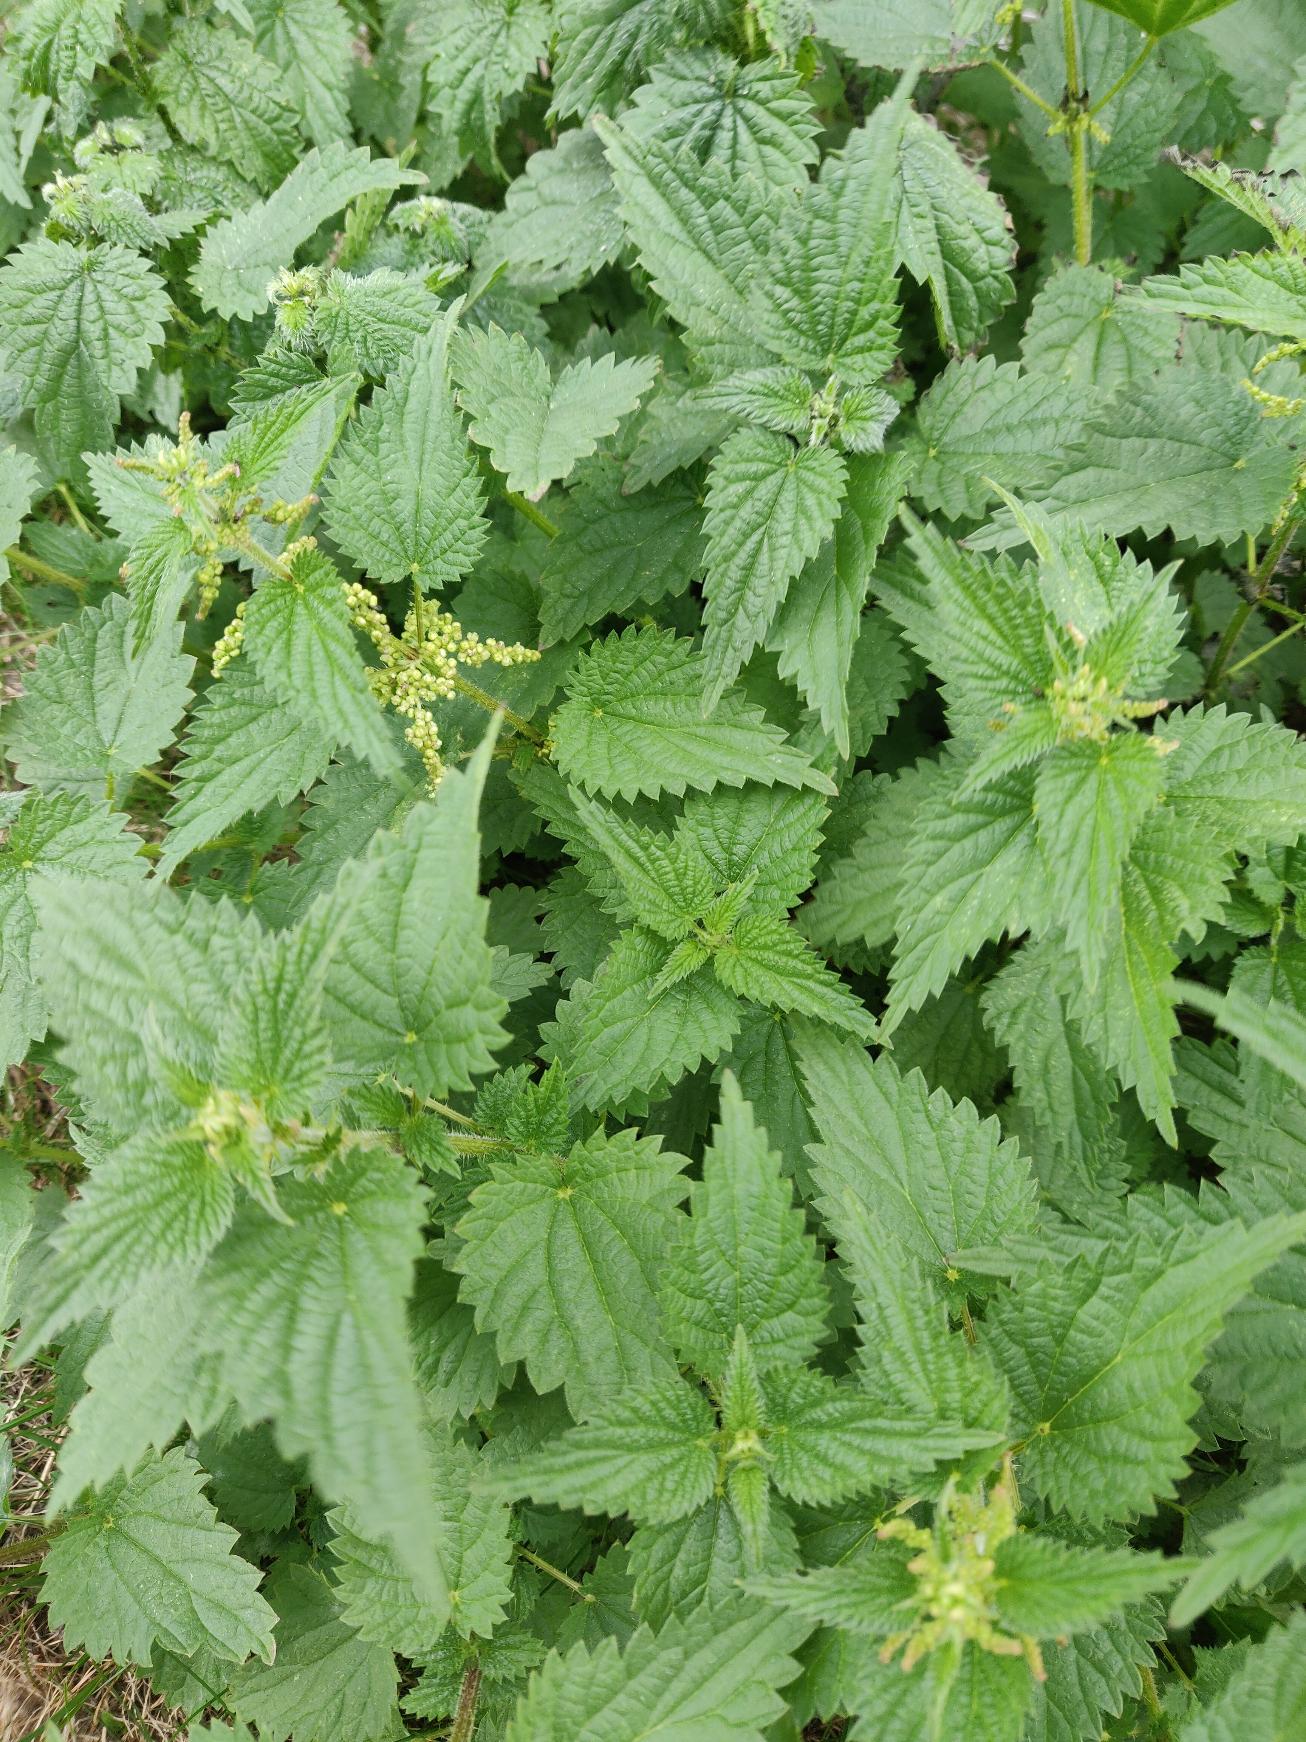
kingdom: Plantae
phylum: Tracheophyta
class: Magnoliopsida
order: Rosales
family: Urticaceae
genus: Urtica
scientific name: Urtica dioica
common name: Stor nælde
